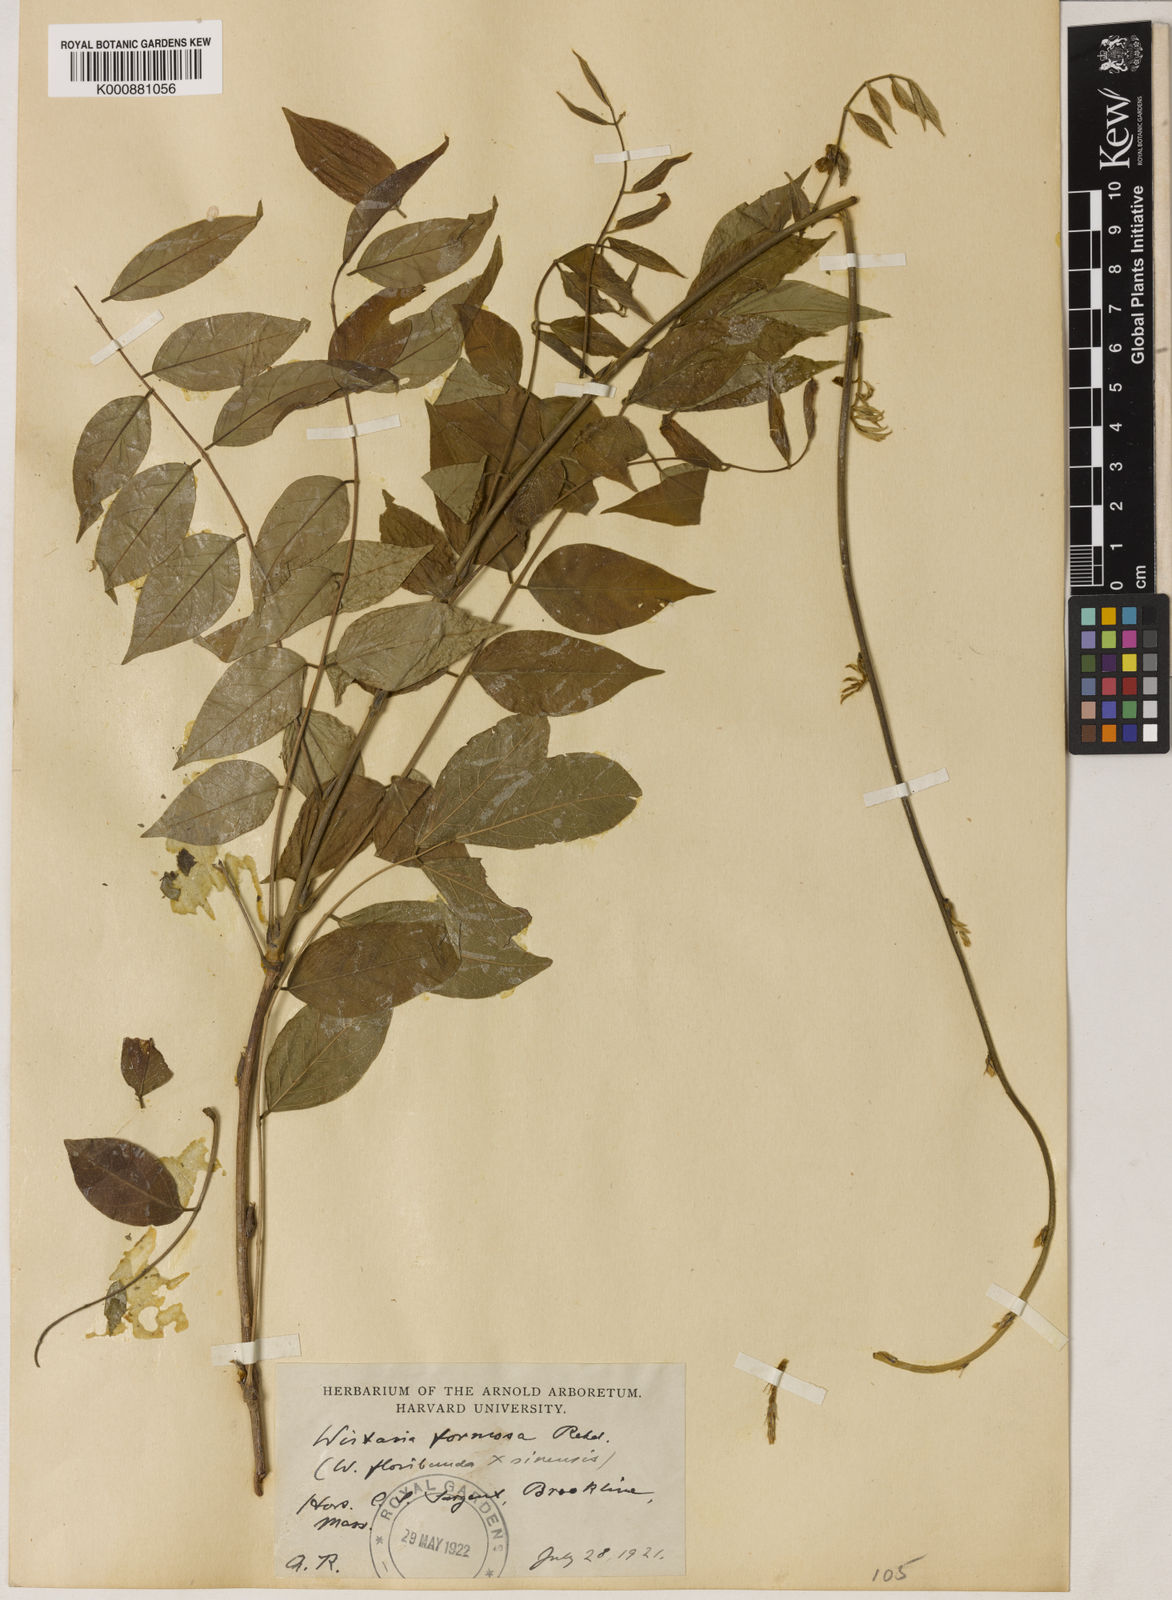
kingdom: Plantae
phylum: Tracheophyta
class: Magnoliopsida
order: Fabales
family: Fabaceae
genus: Wisteria
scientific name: Wisteria formosa
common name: Wisteria
